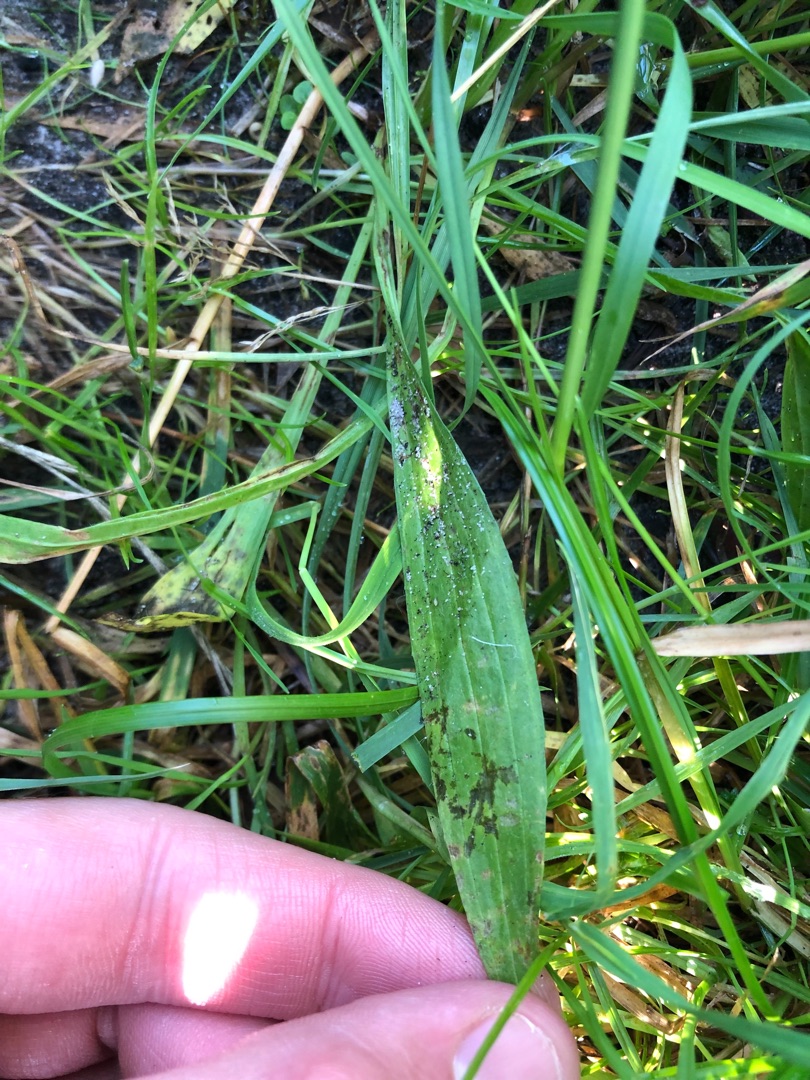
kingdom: Plantae
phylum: Tracheophyta
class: Magnoliopsida
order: Lamiales
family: Plantaginaceae
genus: Plantago
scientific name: Plantago lanceolata
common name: Lancet-vejbred
